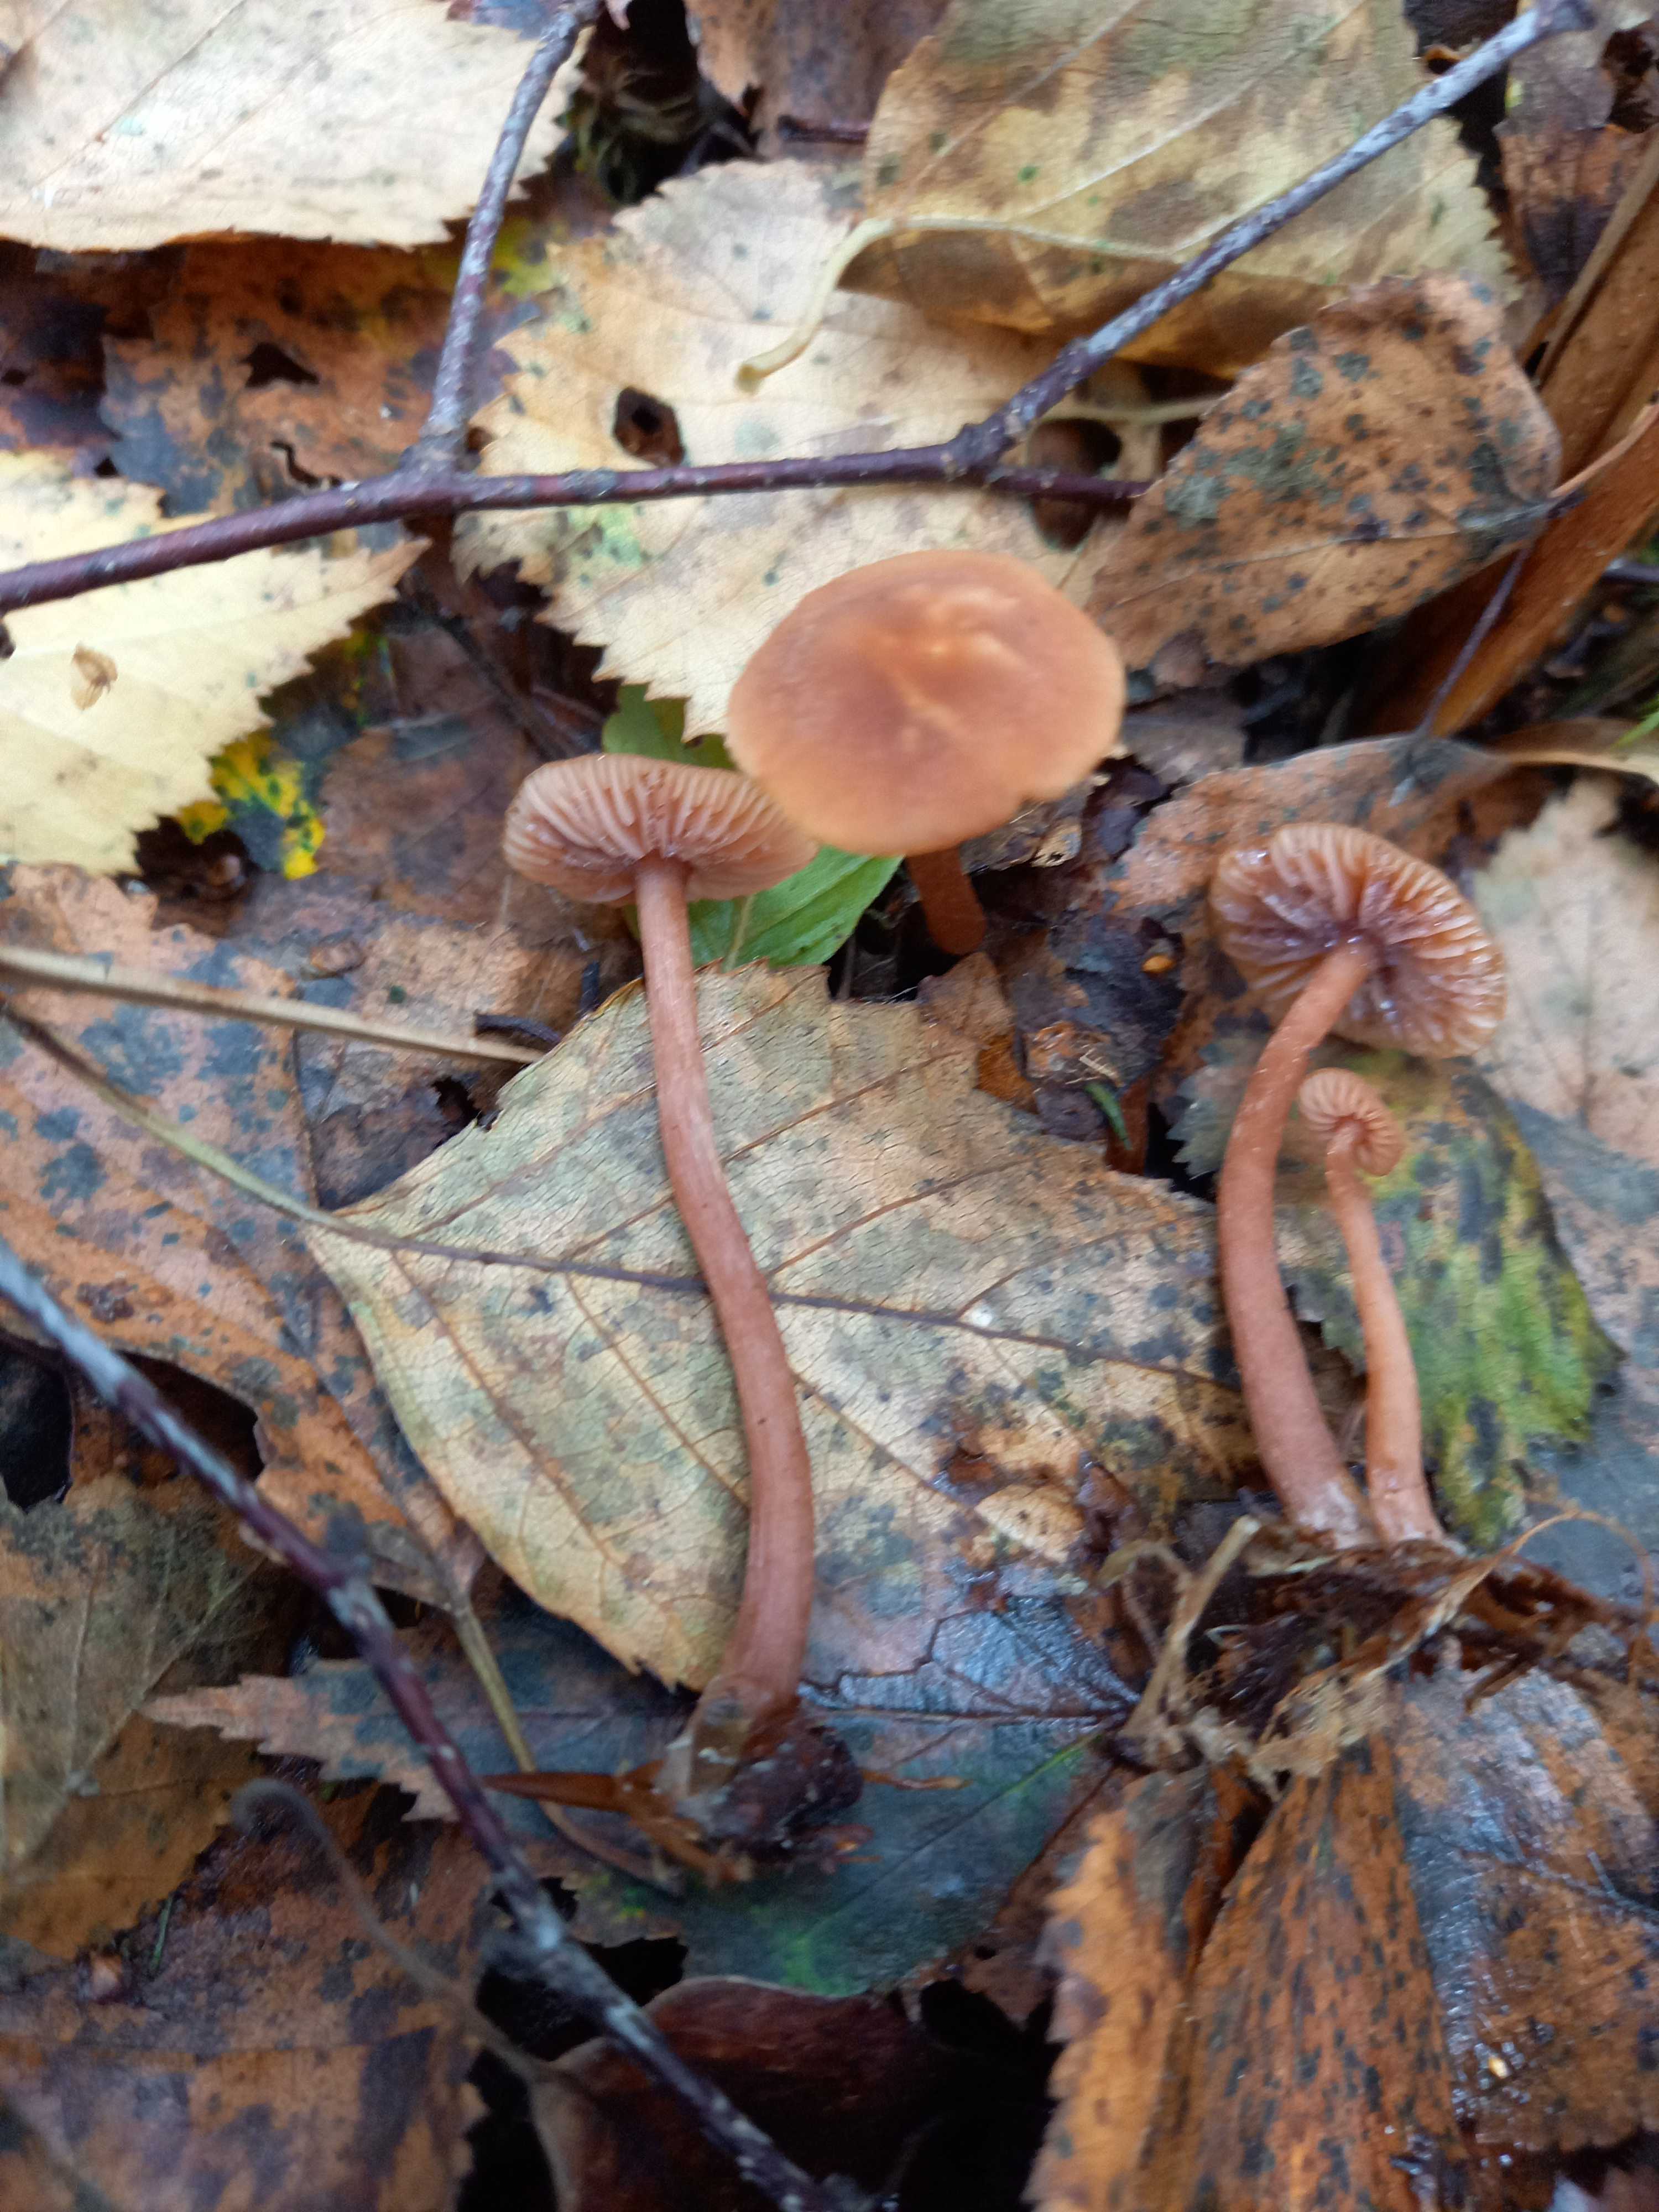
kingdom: Fungi
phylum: Basidiomycota
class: Agaricomycetes
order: Agaricales
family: Hydnangiaceae
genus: Laccaria
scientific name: Laccaria laccata
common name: rød ametysthat
